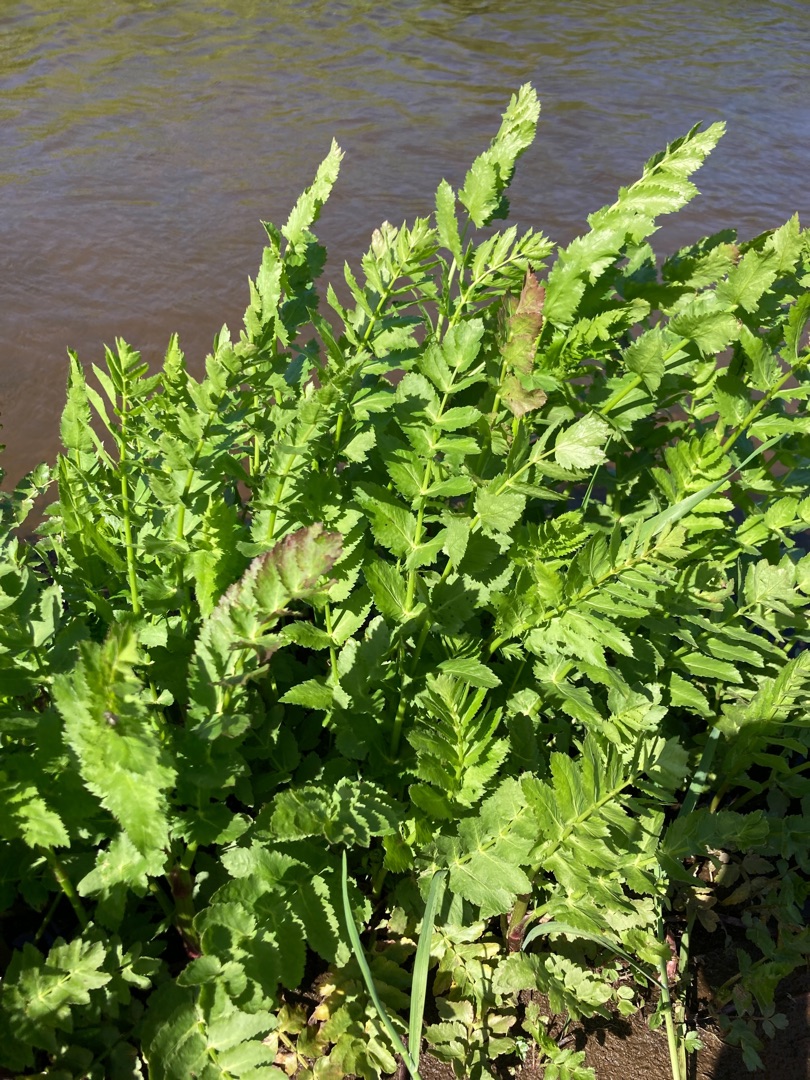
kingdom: Plantae
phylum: Tracheophyta
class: Magnoliopsida
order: Apiales
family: Apiaceae
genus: Berula
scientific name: Berula erecta
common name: Sideskærm
